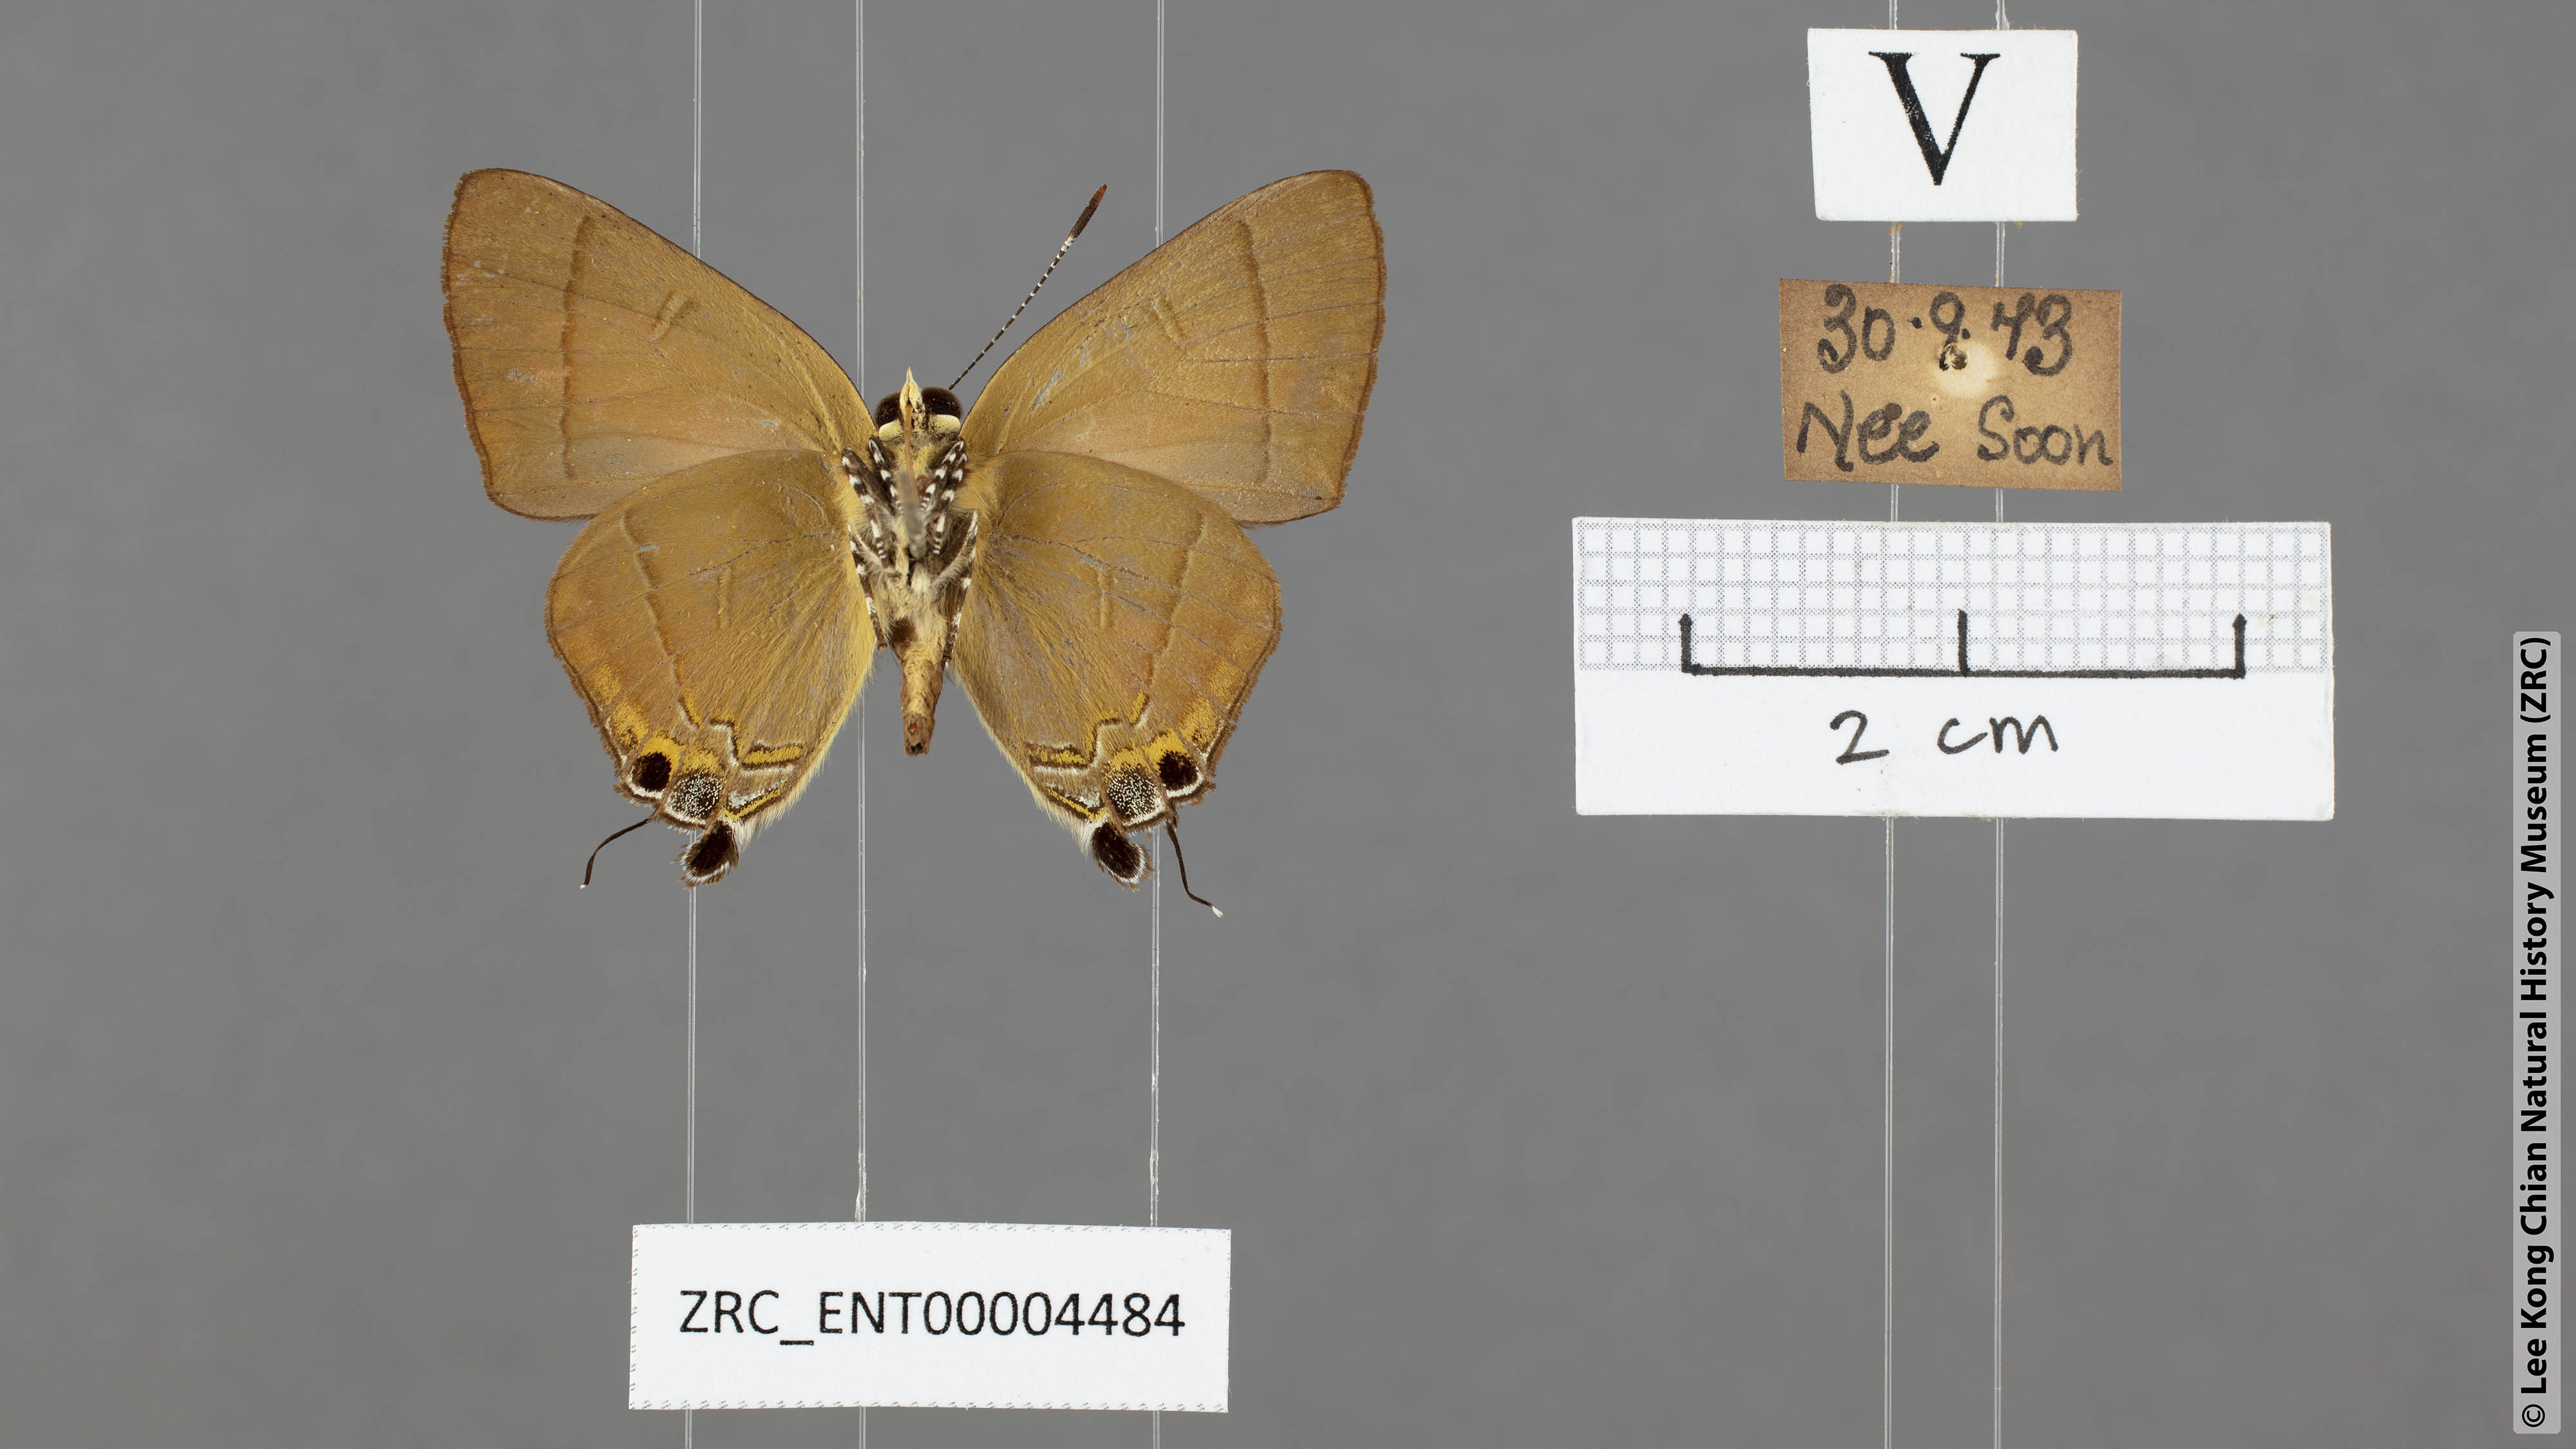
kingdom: Animalia
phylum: Arthropoda
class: Insecta
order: Lepidoptera
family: Lycaenidae
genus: Rapala
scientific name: Rapala dieneces
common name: Scarlet flash
